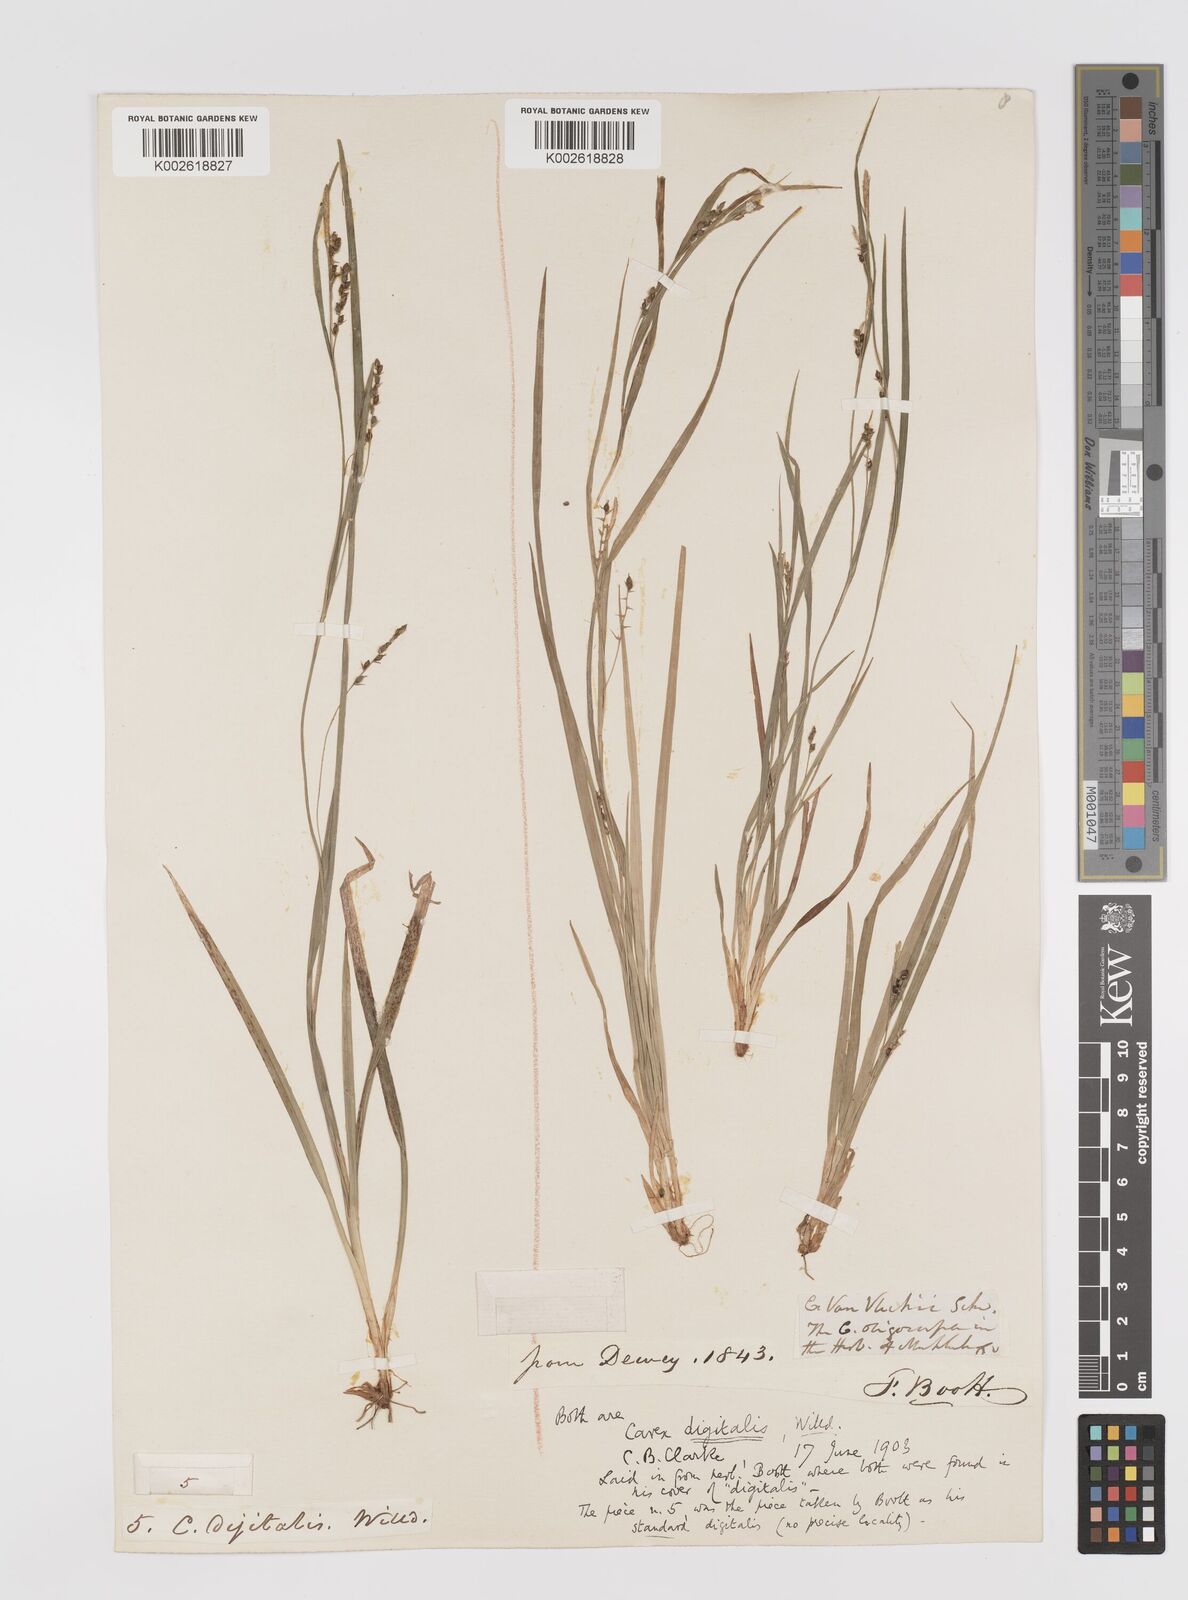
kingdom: Plantae
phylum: Tracheophyta
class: Liliopsida
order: Poales
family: Cyperaceae
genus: Carex
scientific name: Carex digitalis
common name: Slender wood sedge
